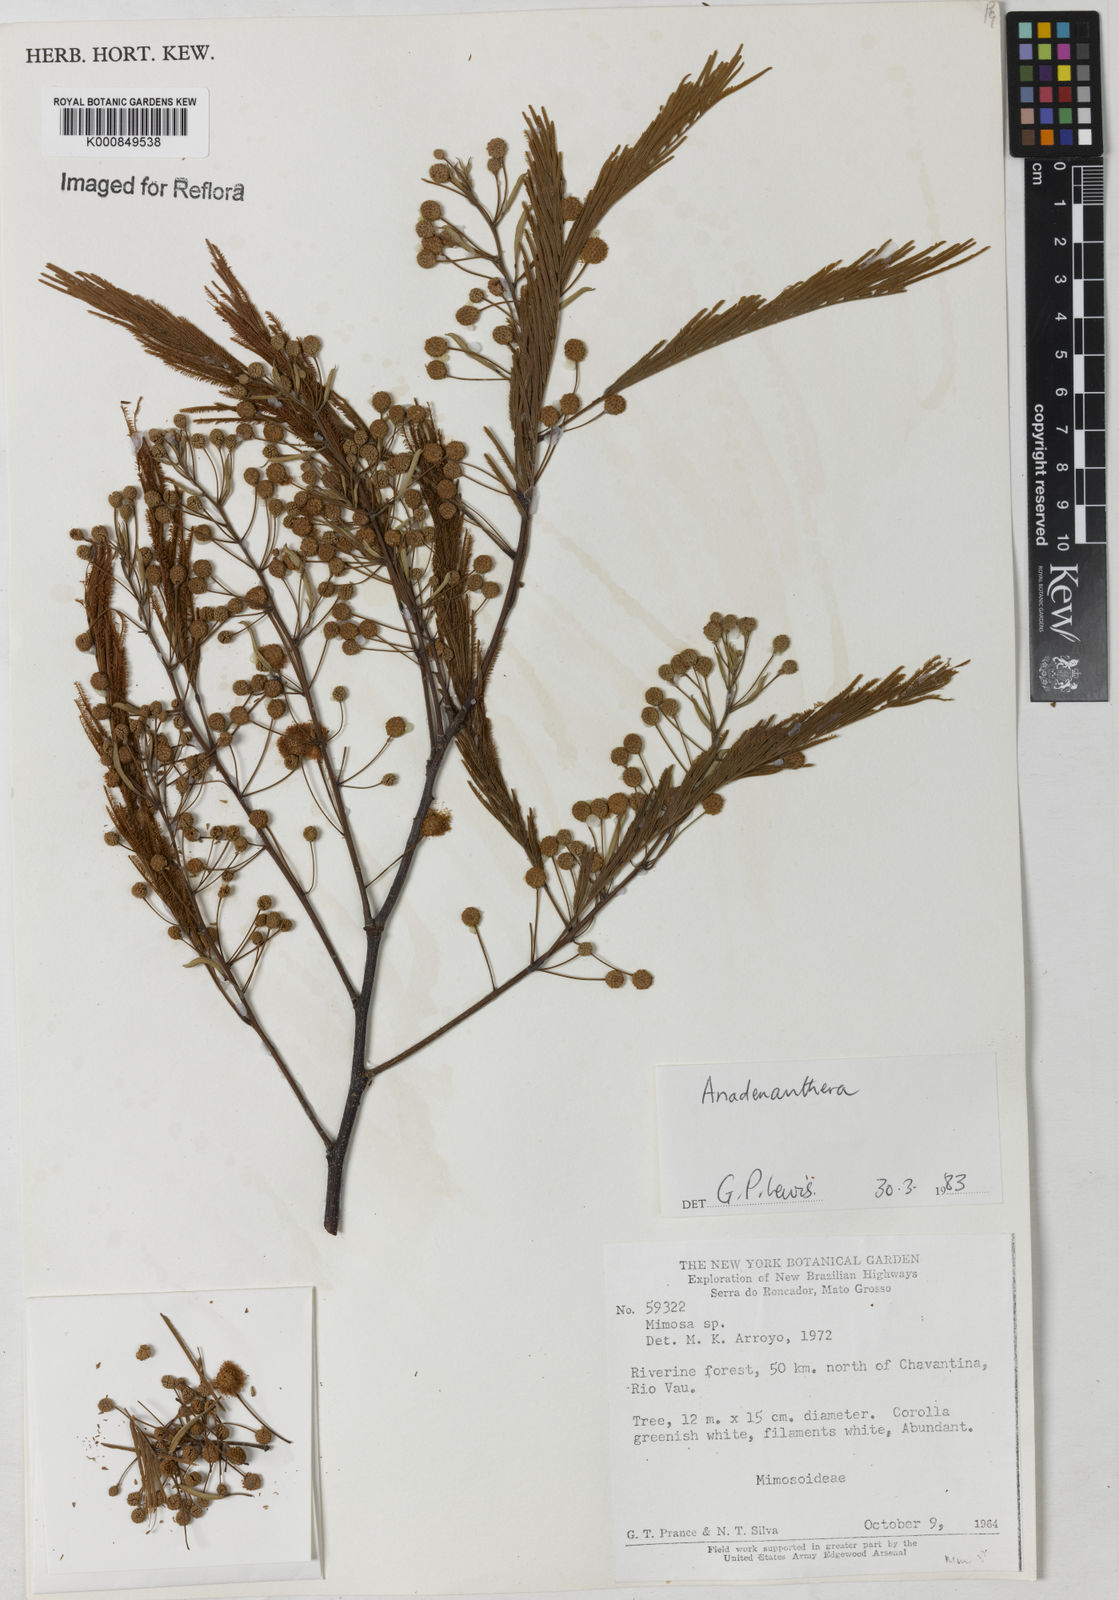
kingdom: Plantae
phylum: Tracheophyta
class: Magnoliopsida
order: Fabales
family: Fabaceae
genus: Anadenanthera
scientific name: Anadenanthera
